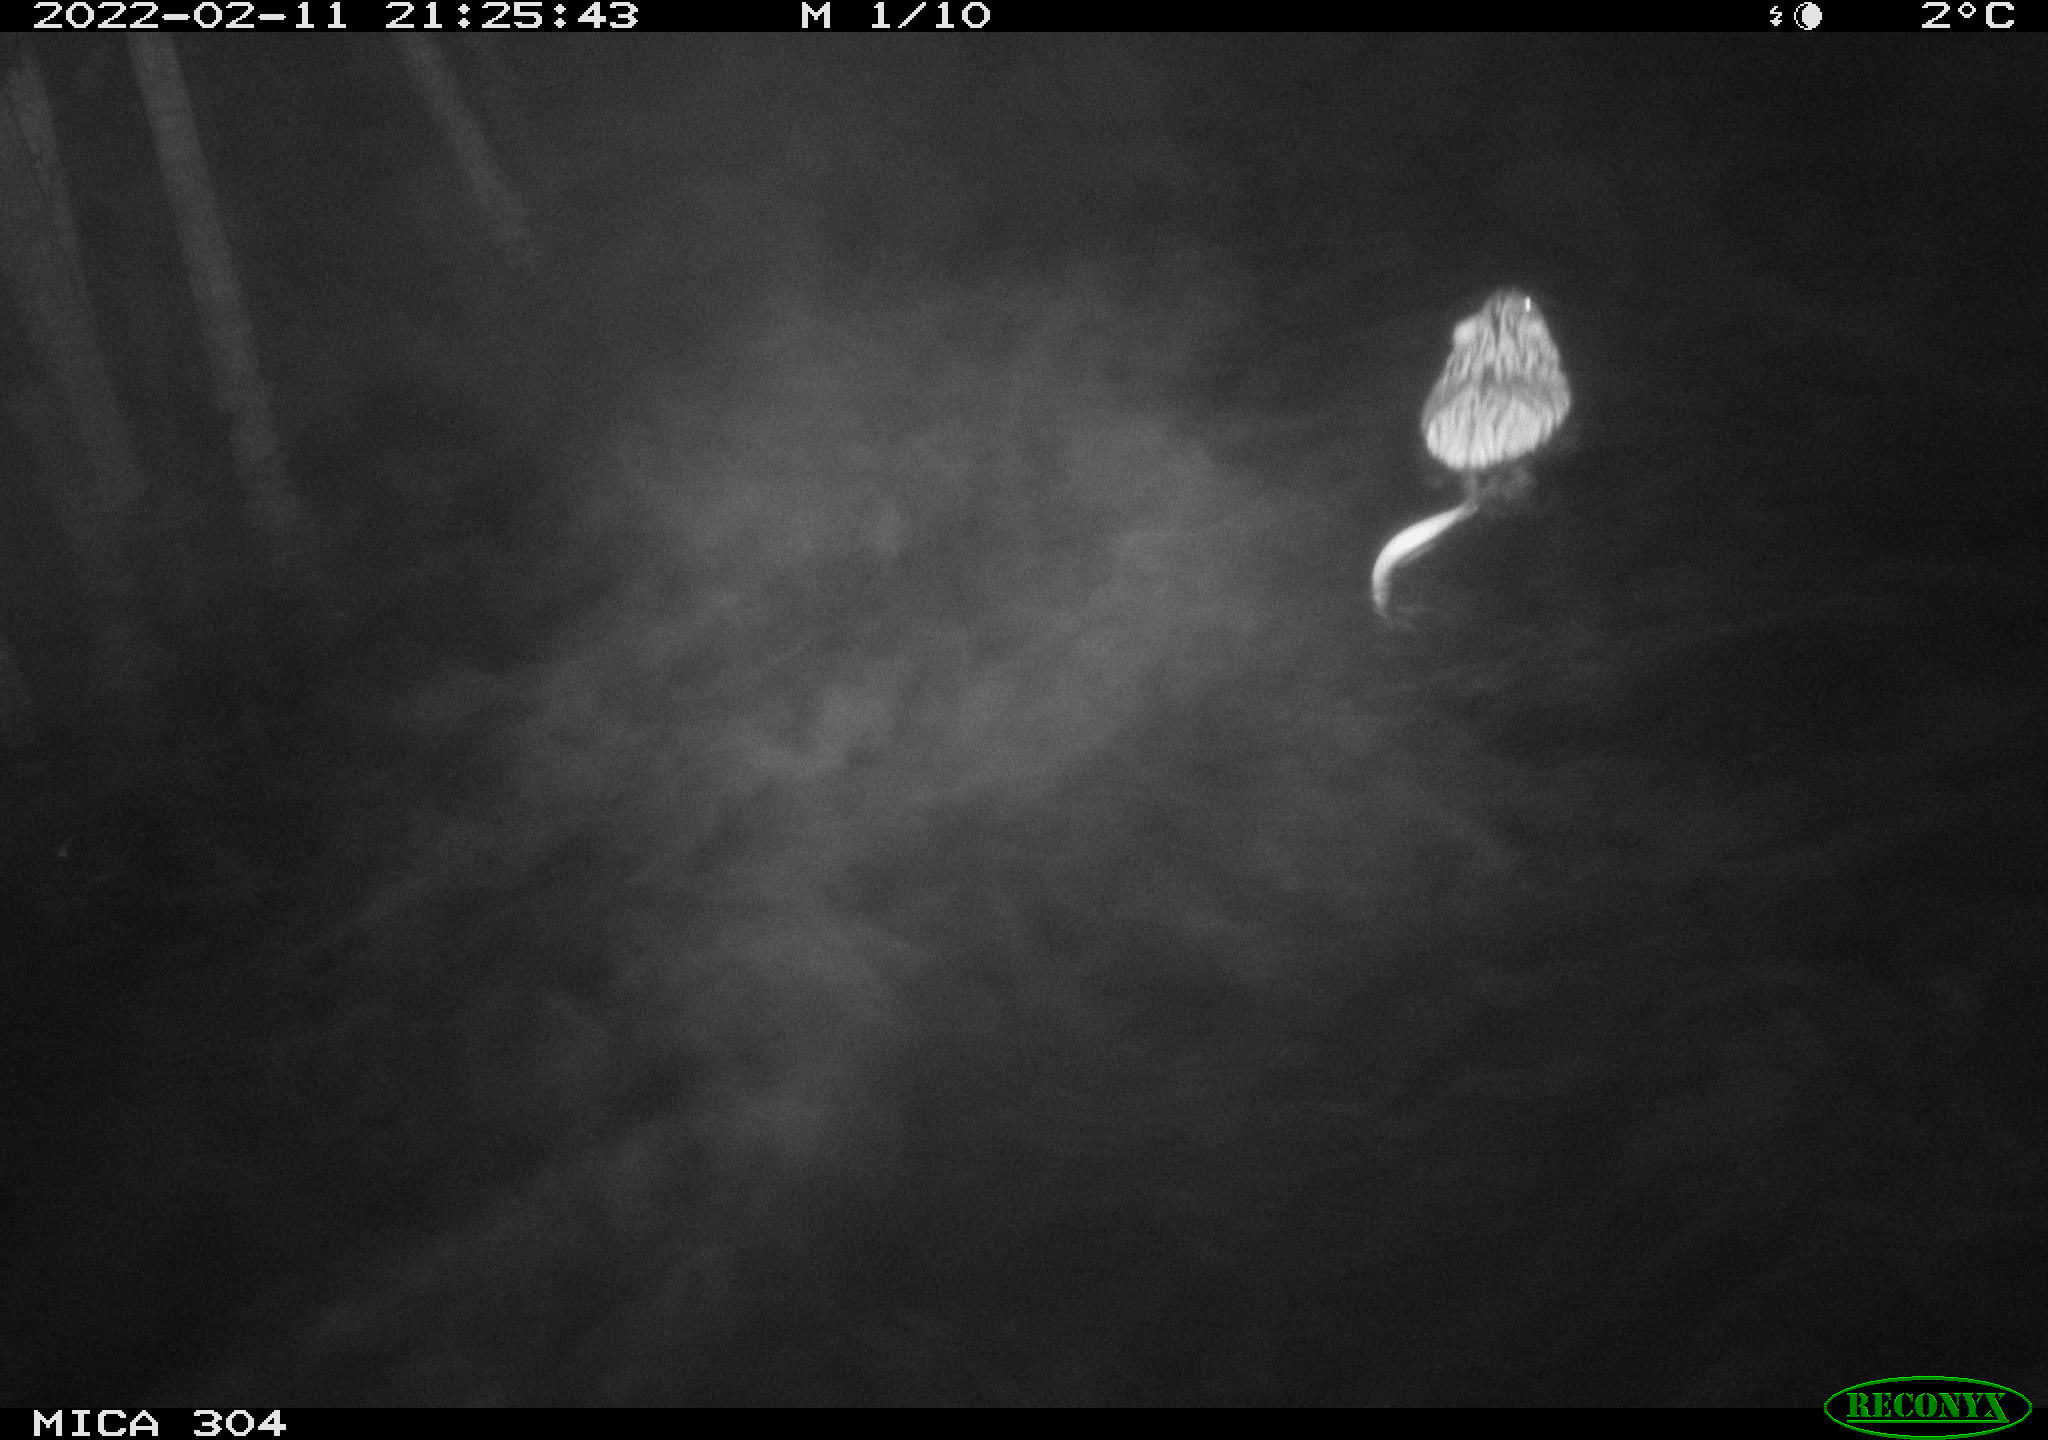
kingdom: Animalia
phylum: Chordata
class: Mammalia
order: Rodentia
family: Cricetidae
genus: Ondatra
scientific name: Ondatra zibethicus
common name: Muskrat
